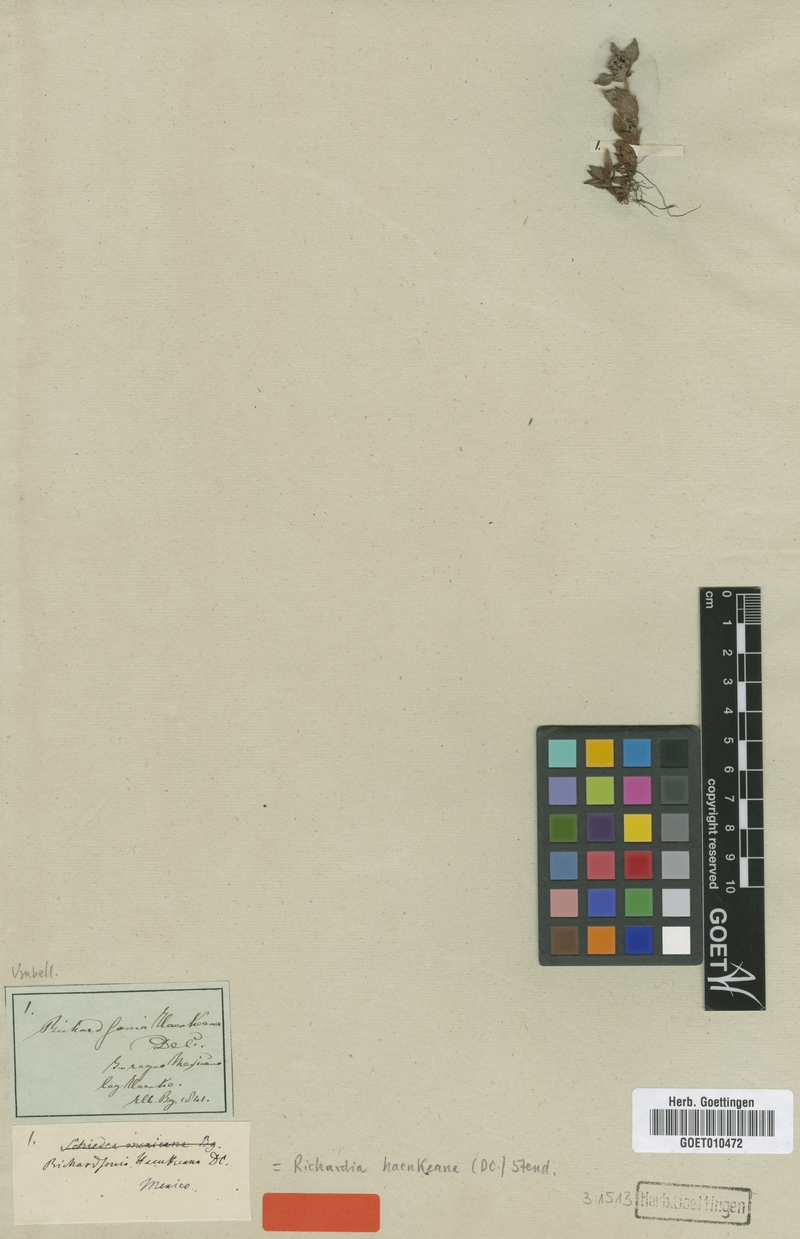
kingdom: Plantae
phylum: Tracheophyta
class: Magnoliopsida
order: Gentianales
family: Rubiaceae
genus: Richardia
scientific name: Richardia humistrata
